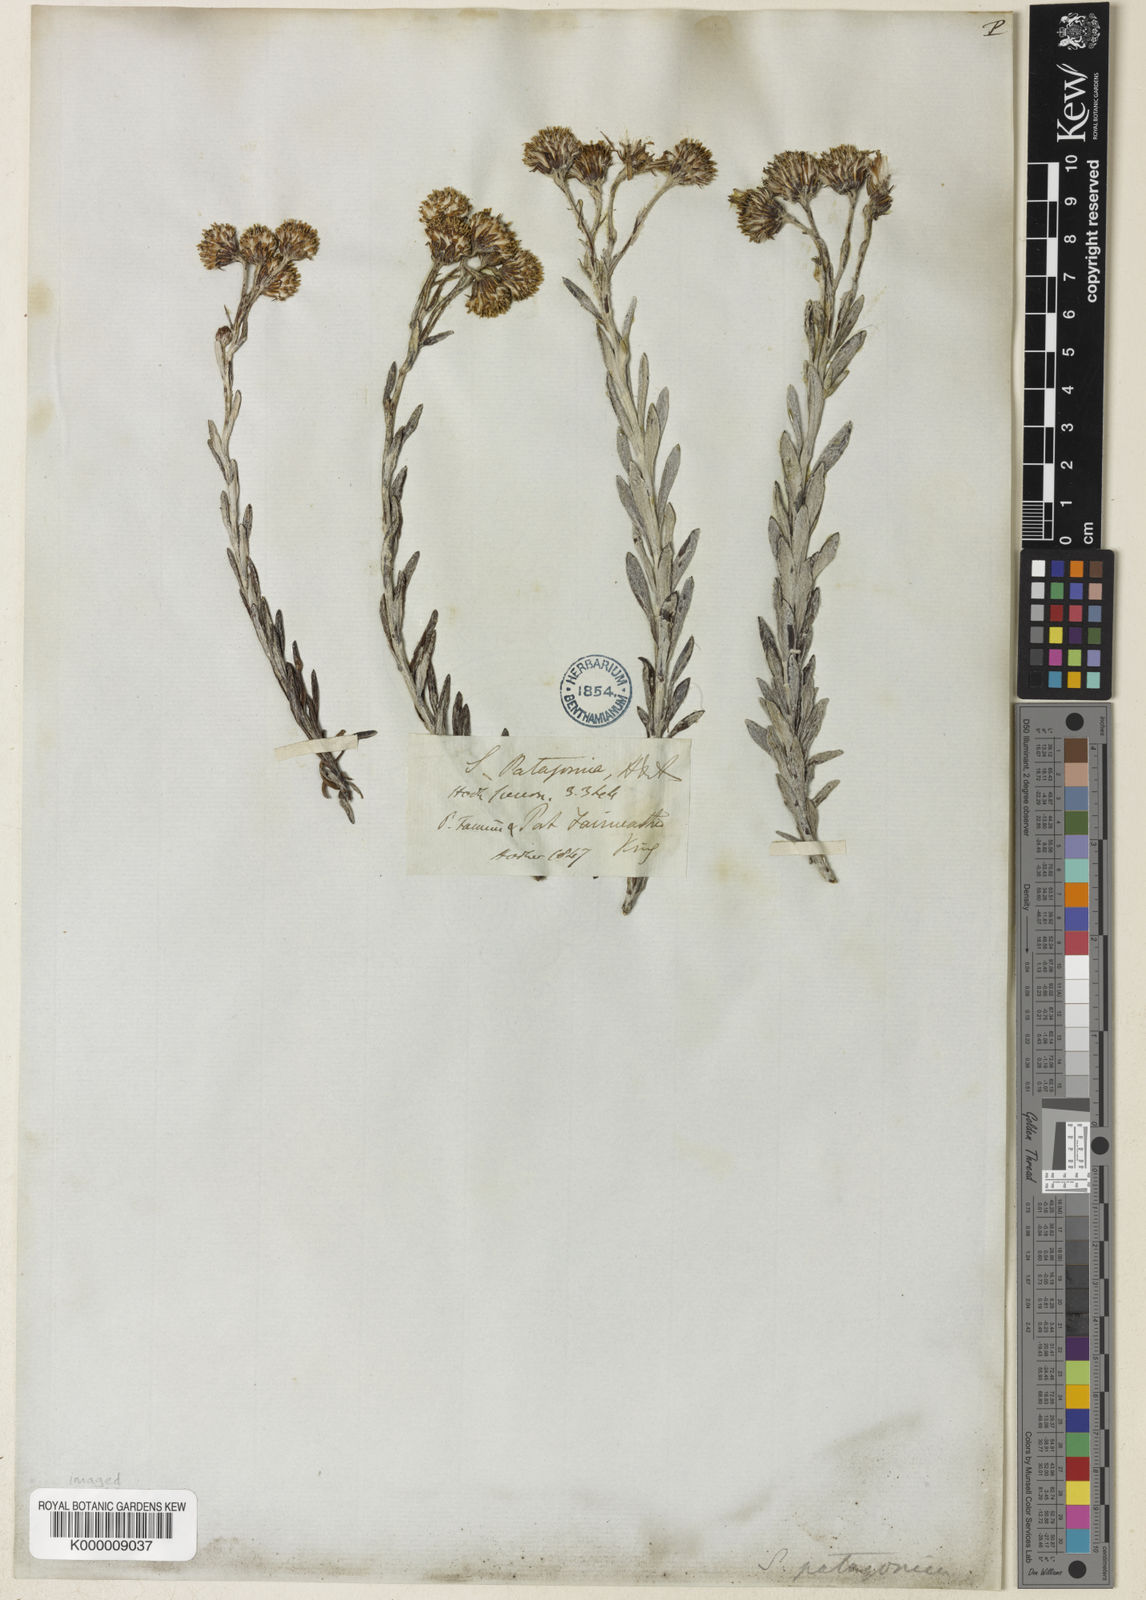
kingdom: Plantae
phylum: Tracheophyta
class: Magnoliopsida
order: Asterales
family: Asteraceae
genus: Senecio
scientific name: Senecio patagonicus
